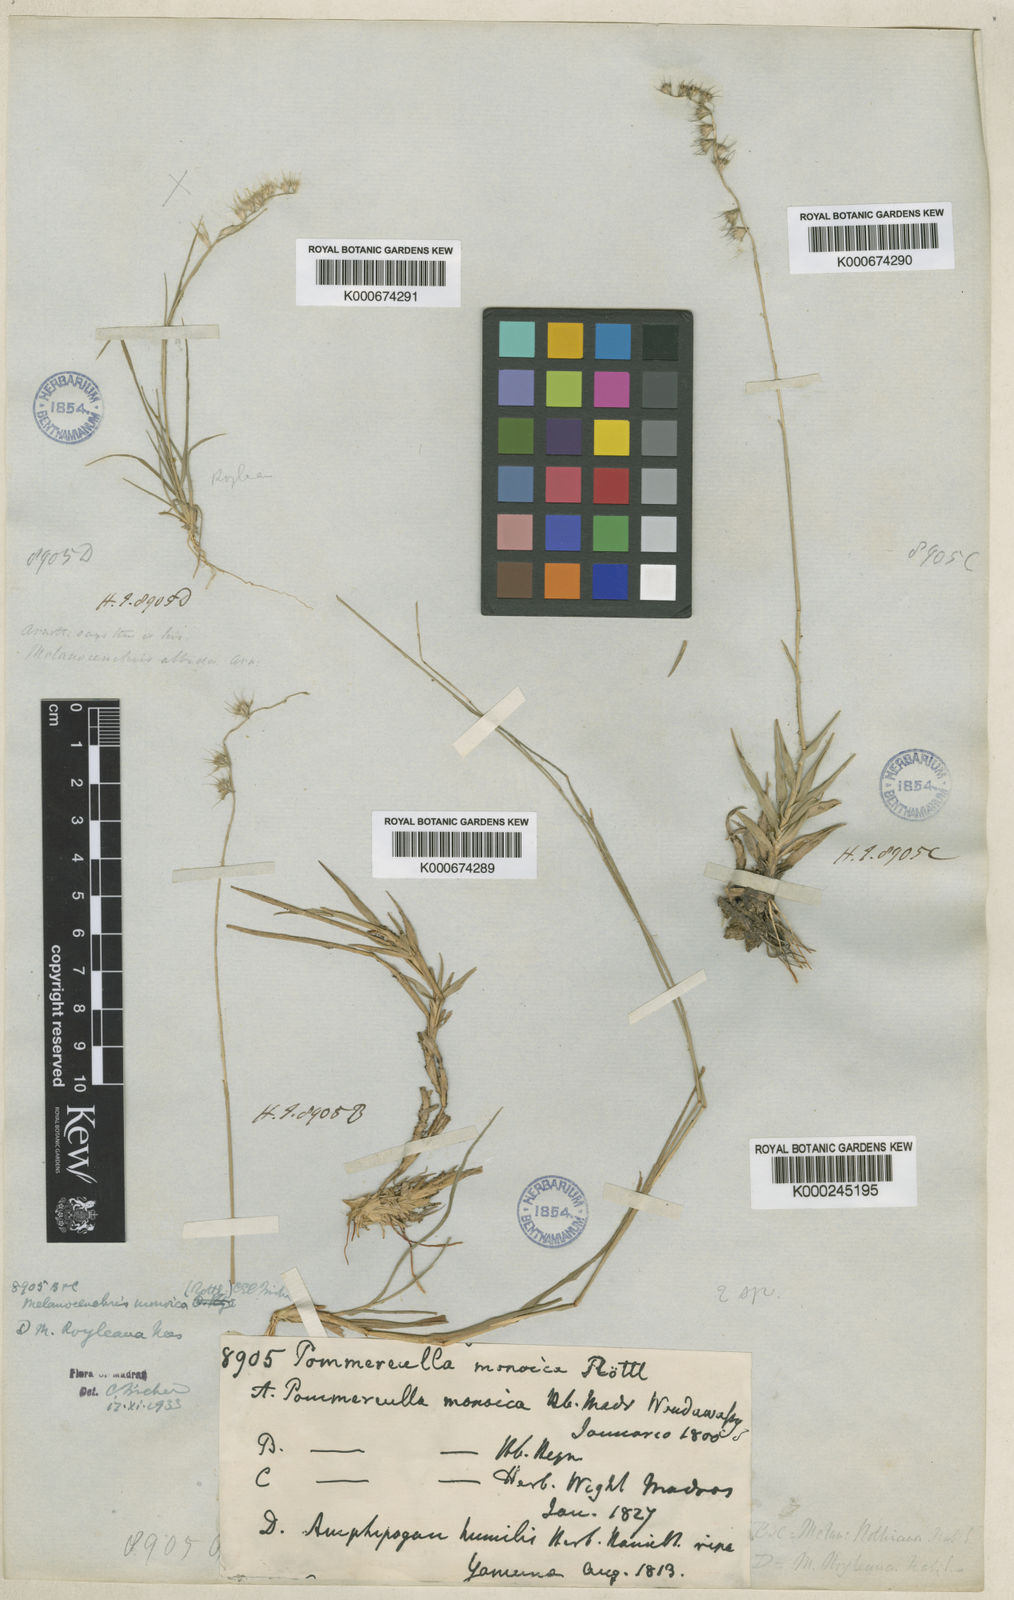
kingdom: Plantae
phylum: Tracheophyta
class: Liliopsida
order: Poales
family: Poaceae
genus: Melanocenchris
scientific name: Melanocenchris rothiana
